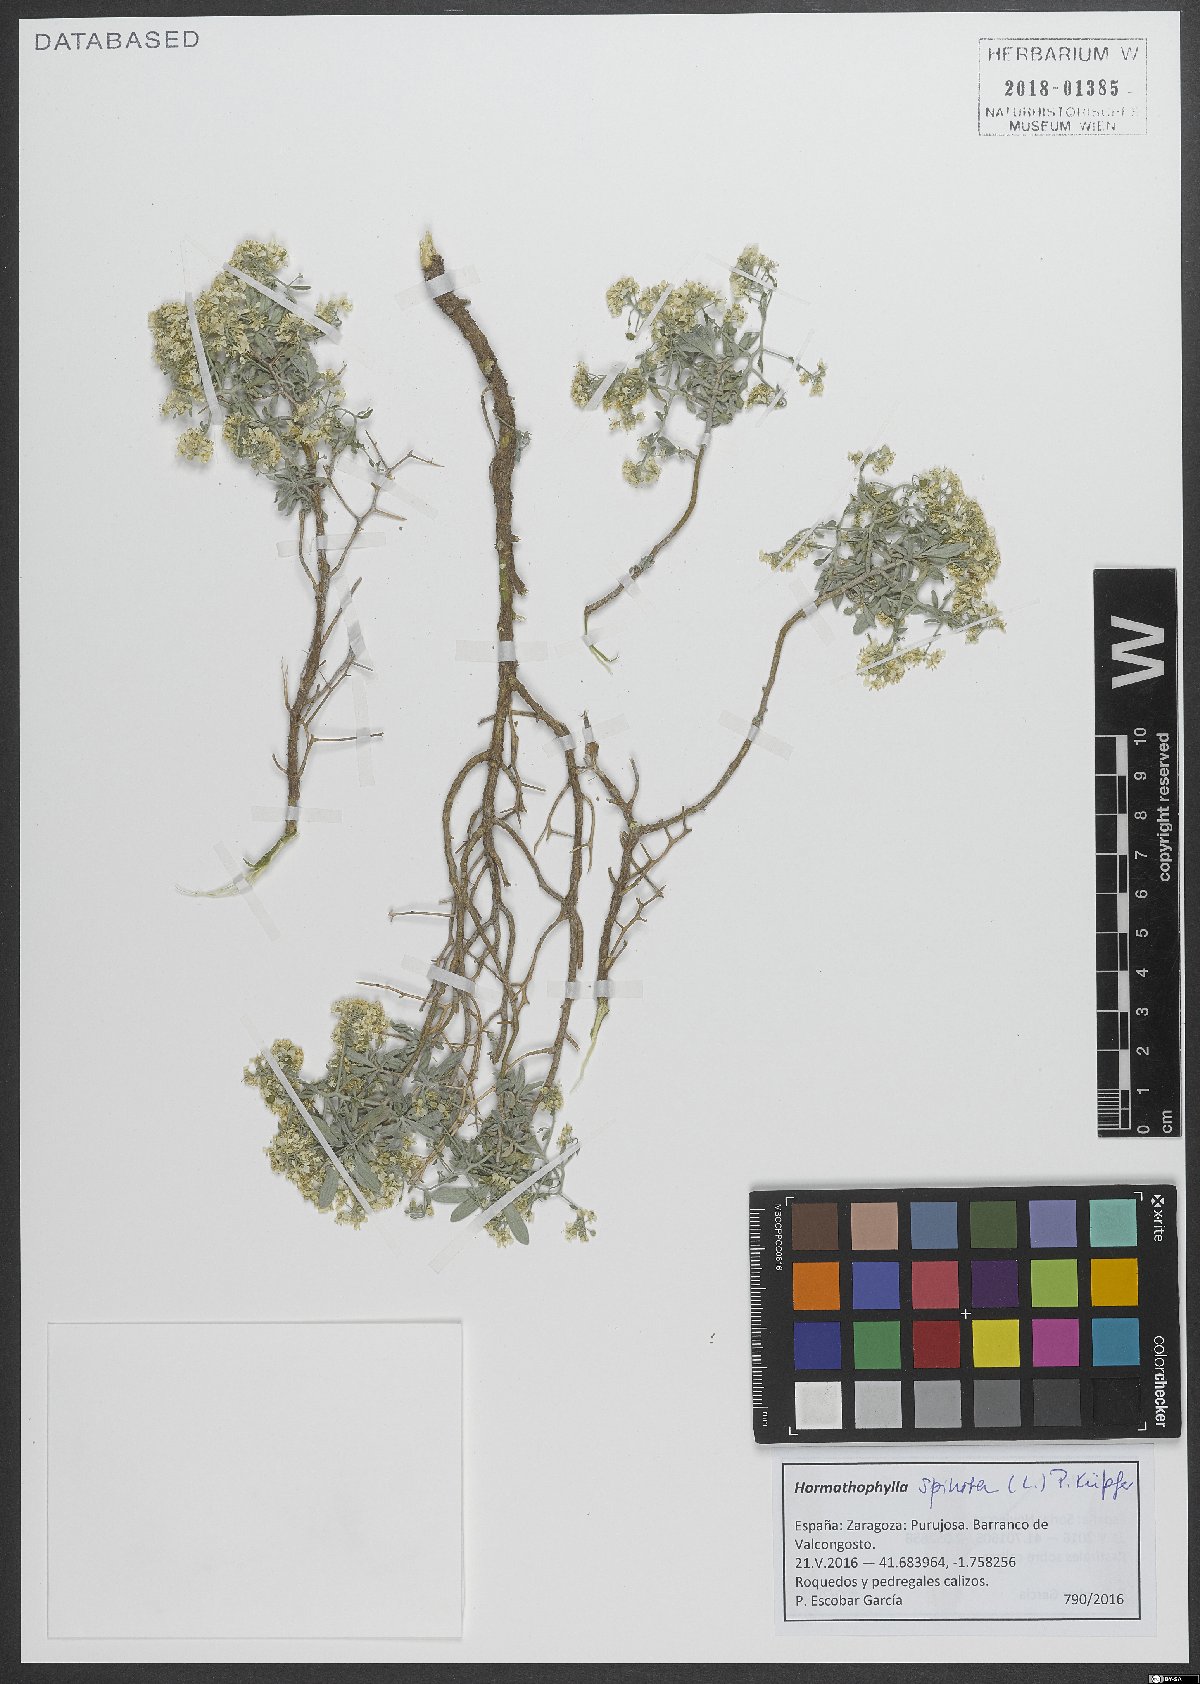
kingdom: Plantae
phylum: Tracheophyta
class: Magnoliopsida
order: Brassicales
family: Brassicaceae
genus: Hormathophylla
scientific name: Hormathophylla spinosa
